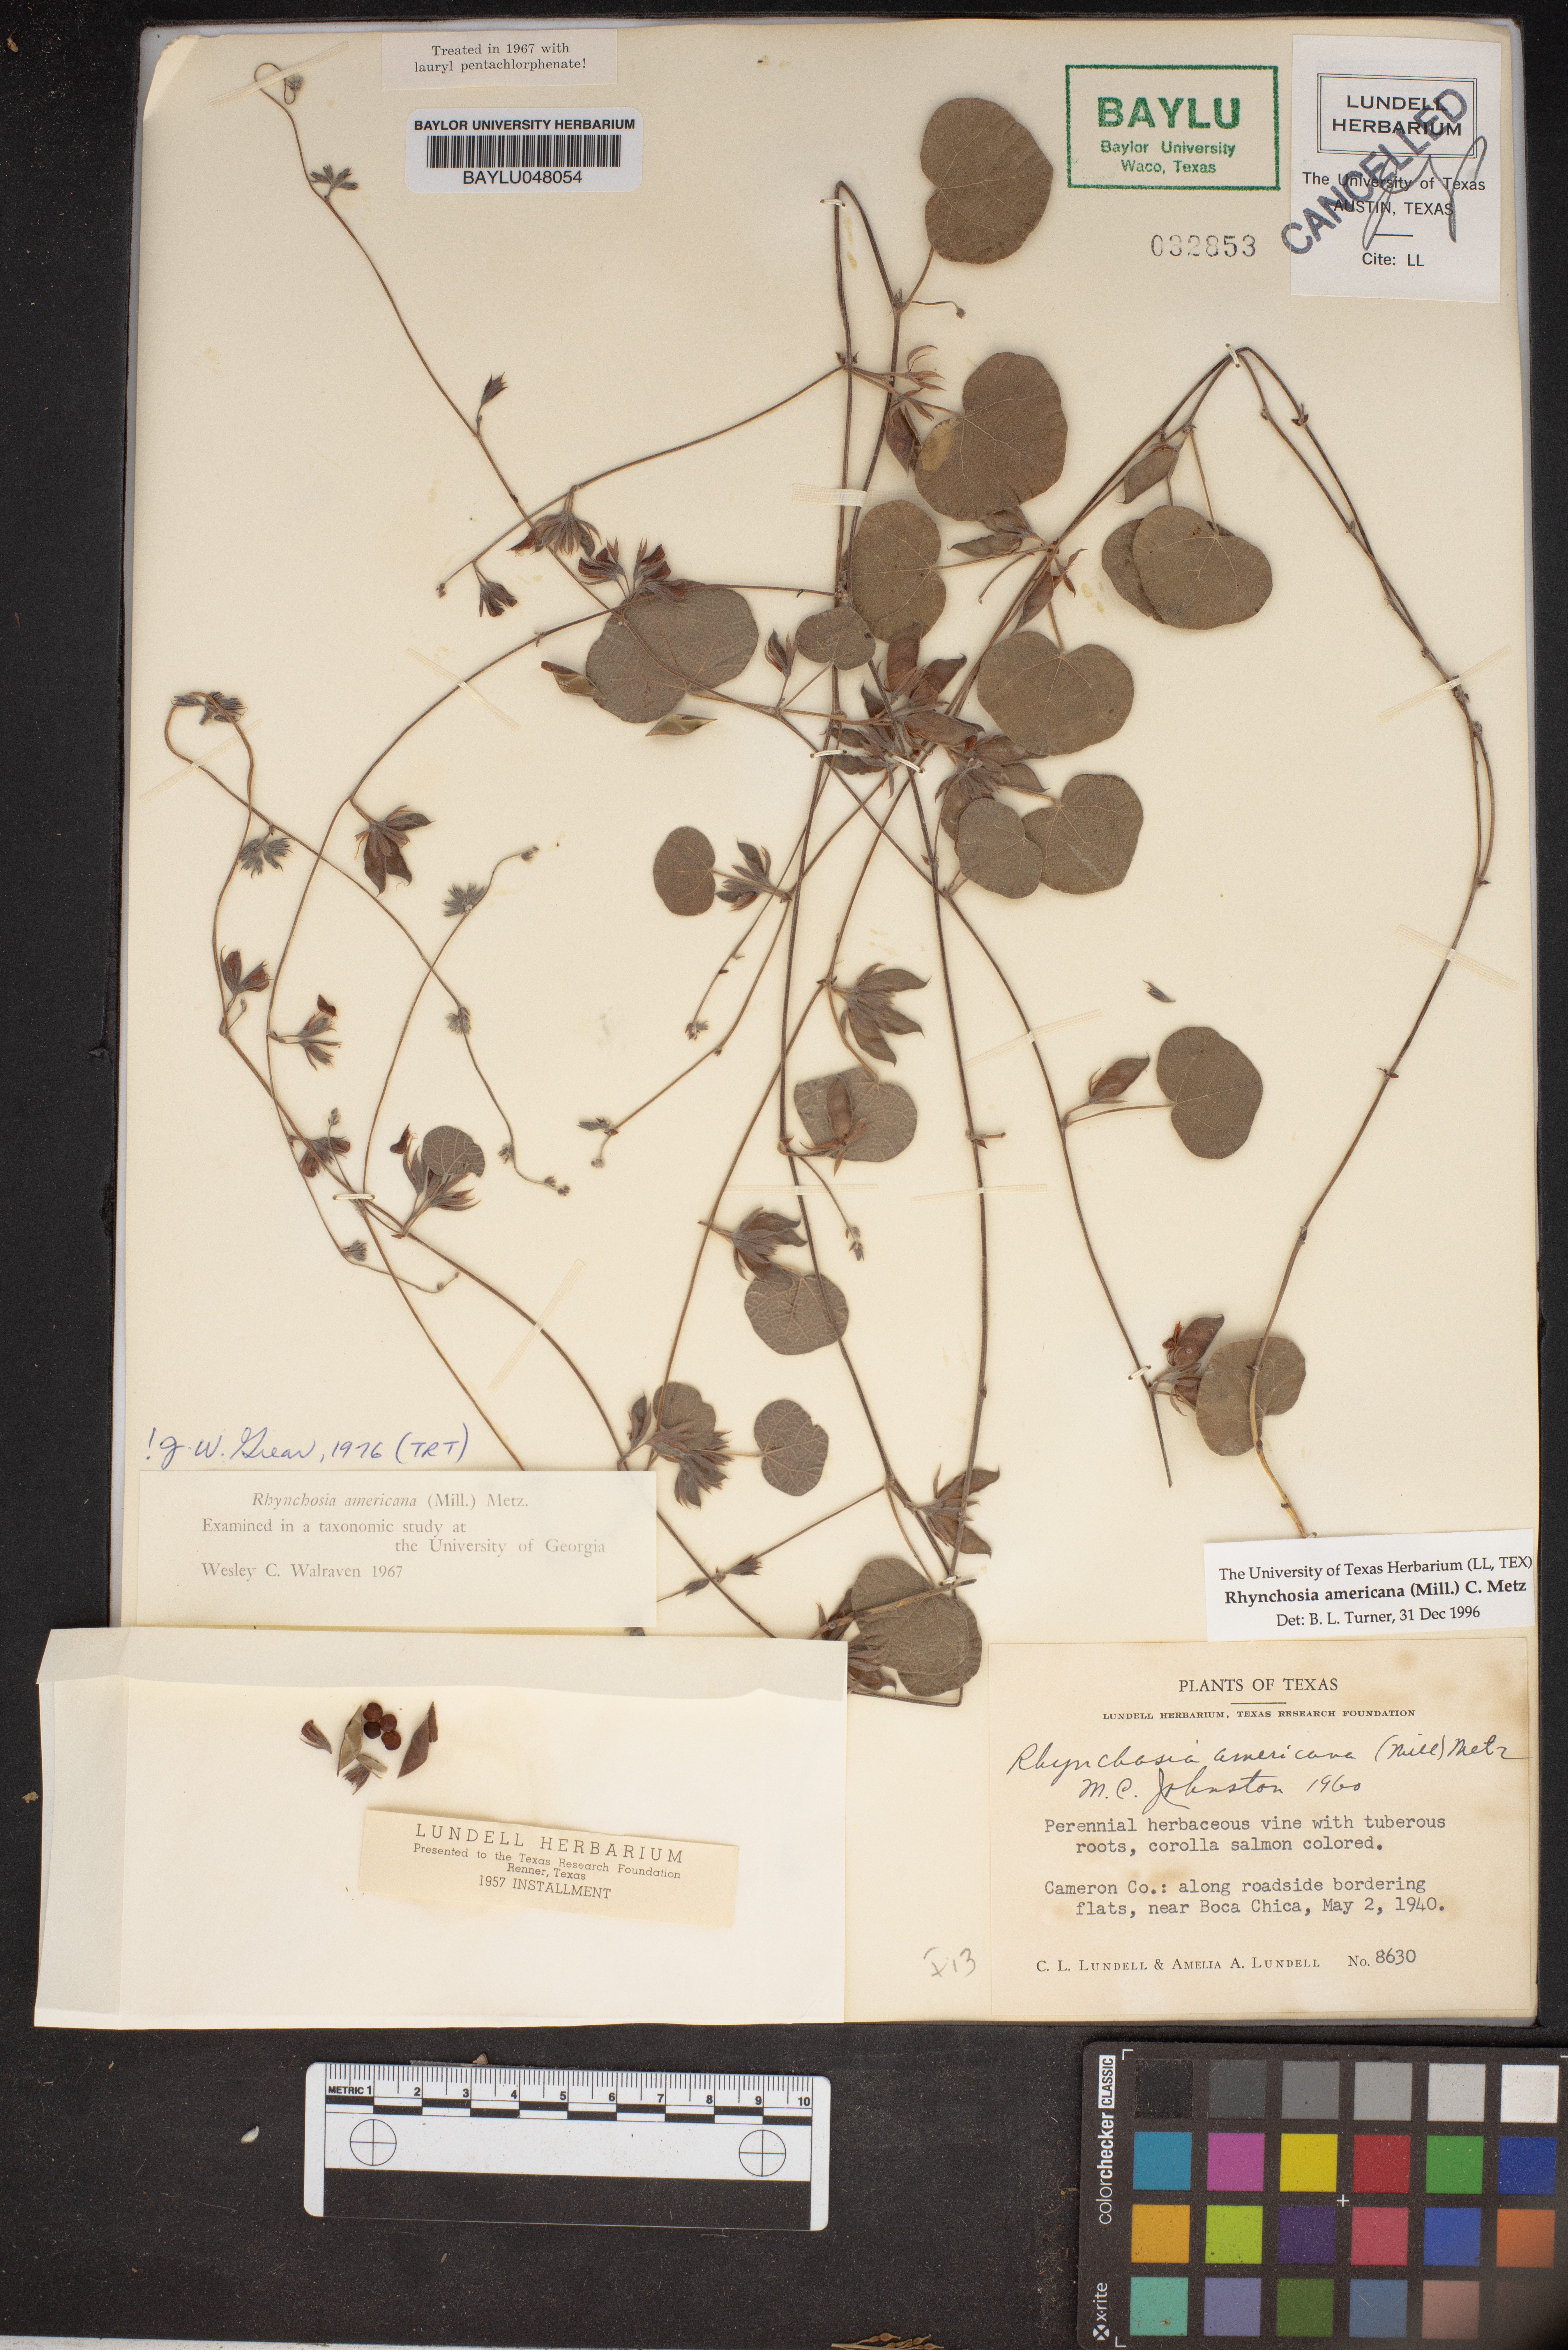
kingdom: Plantae
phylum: Tracheophyta
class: Magnoliopsida
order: Fabales
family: Fabaceae
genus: Rhynchosia
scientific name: Rhynchosia americana
